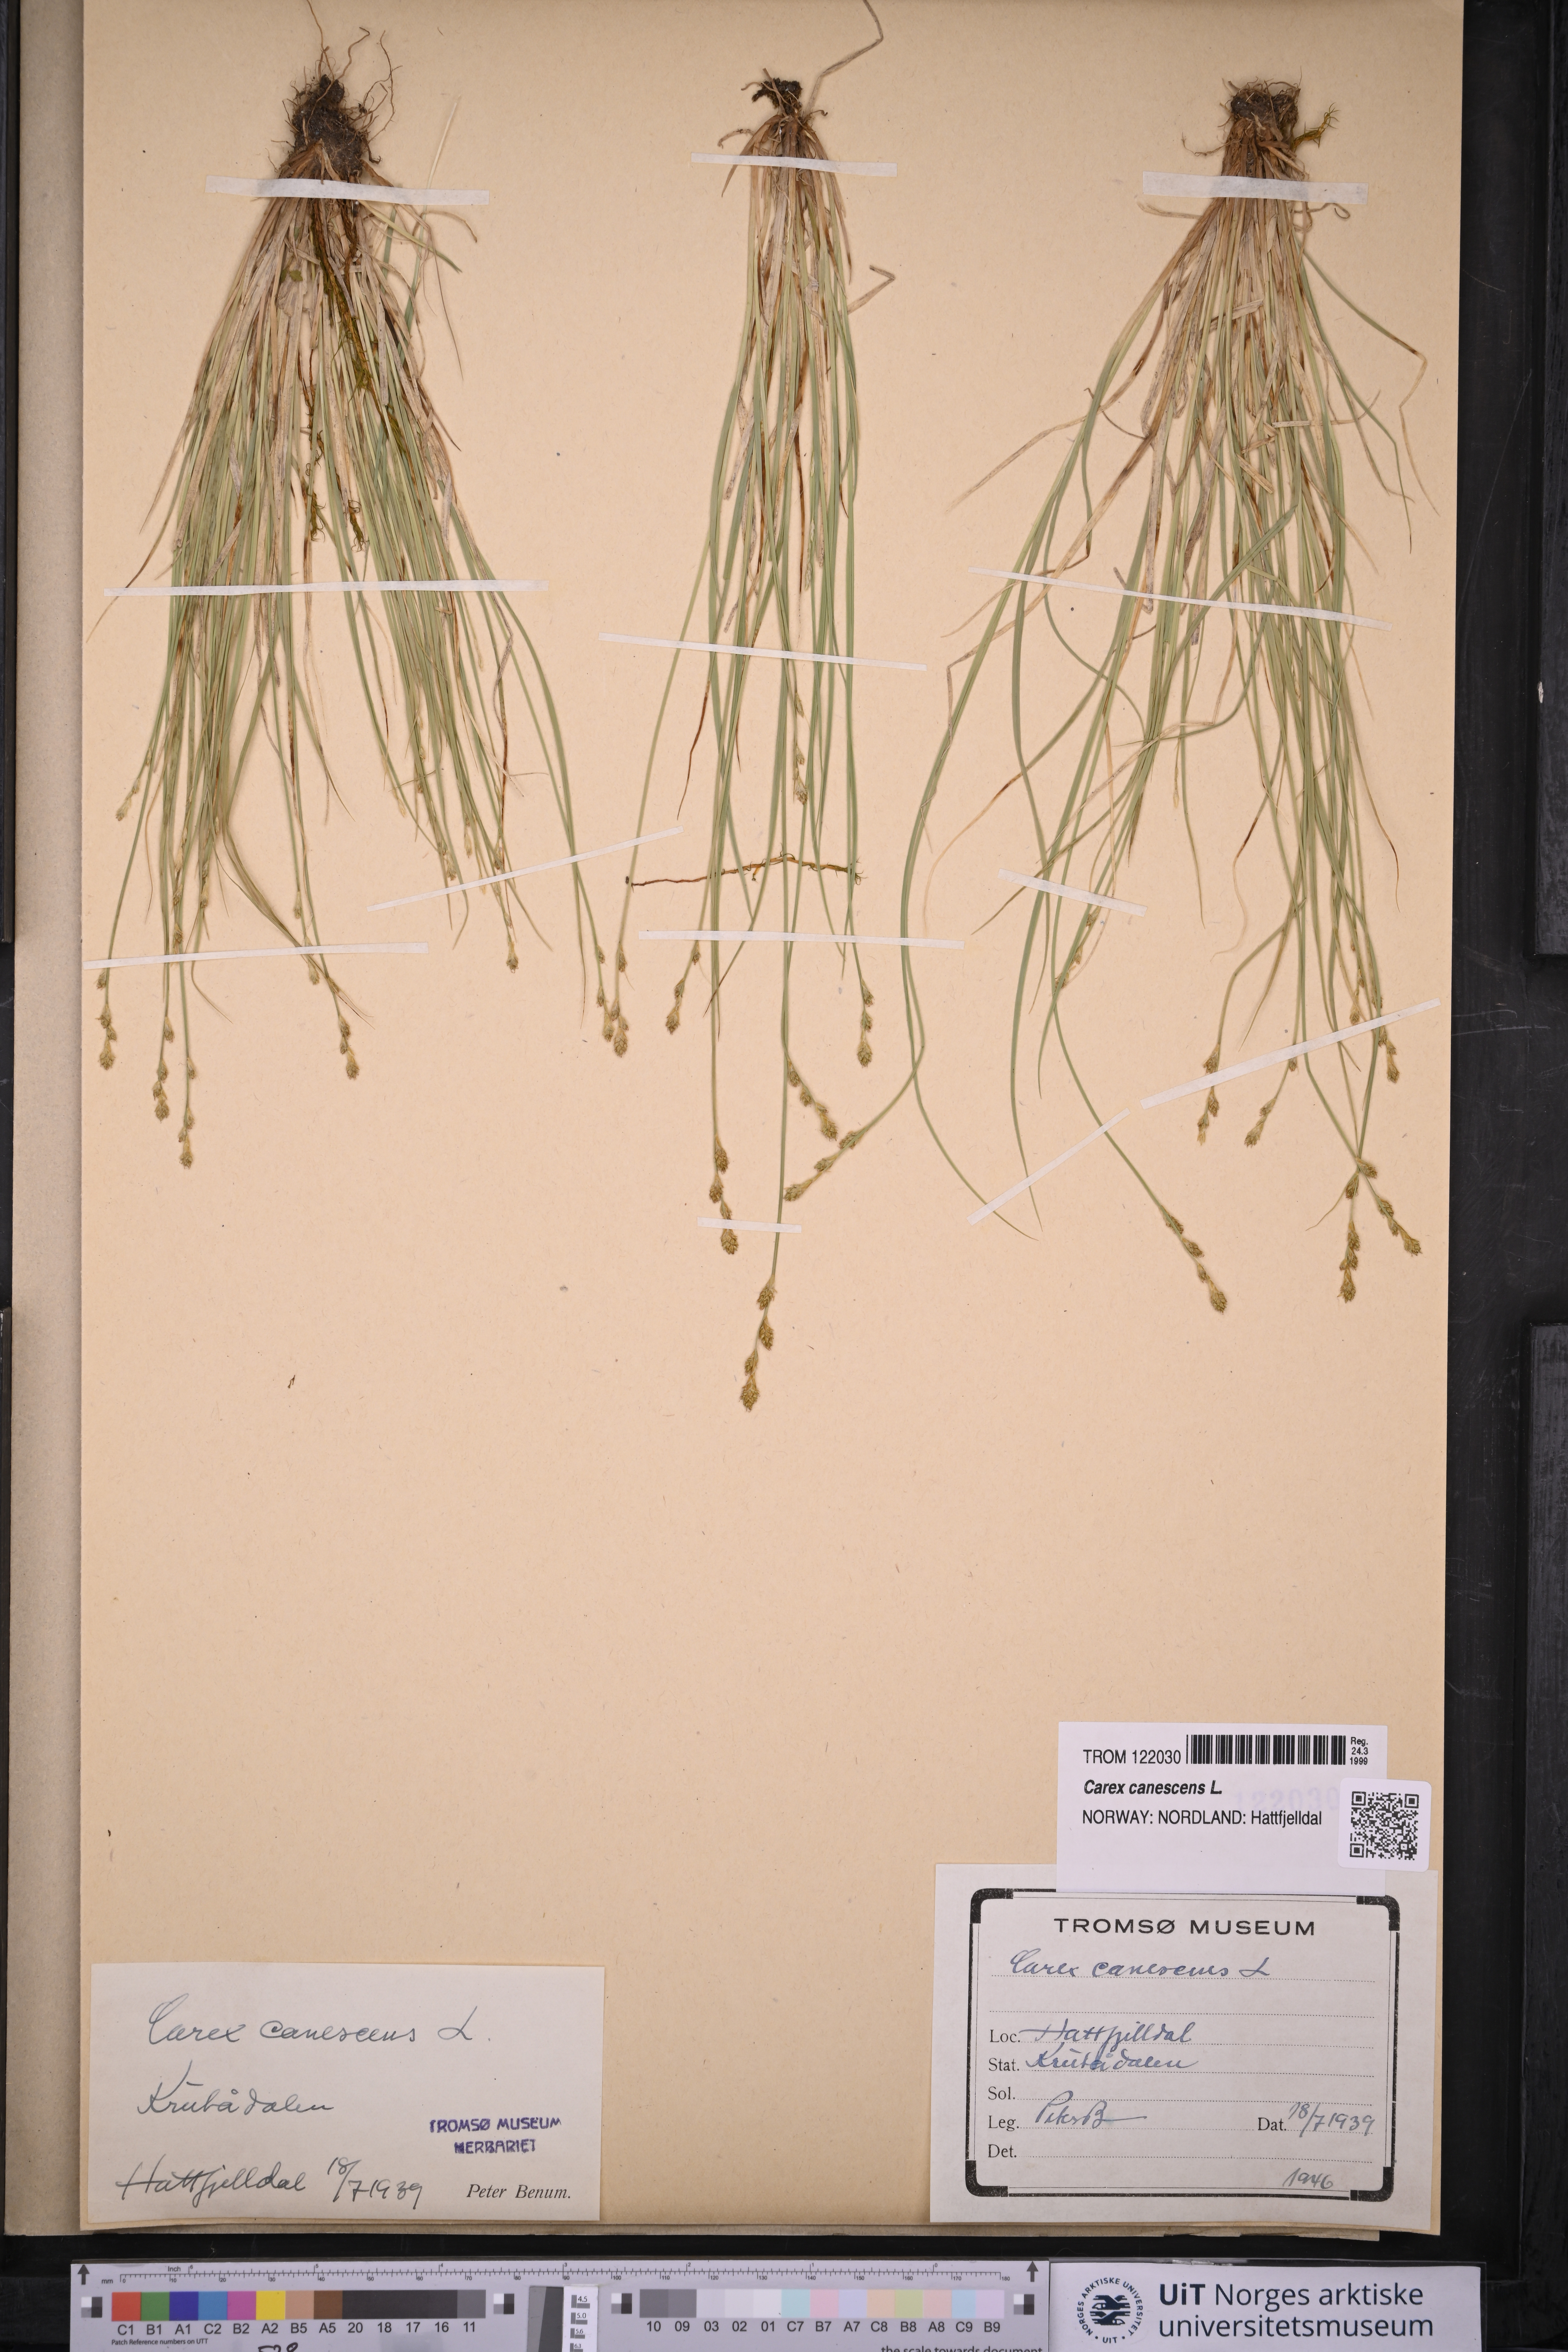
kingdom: Plantae
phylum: Tracheophyta
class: Liliopsida
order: Poales
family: Cyperaceae
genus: Carex
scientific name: Carex canescens
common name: White sedge
